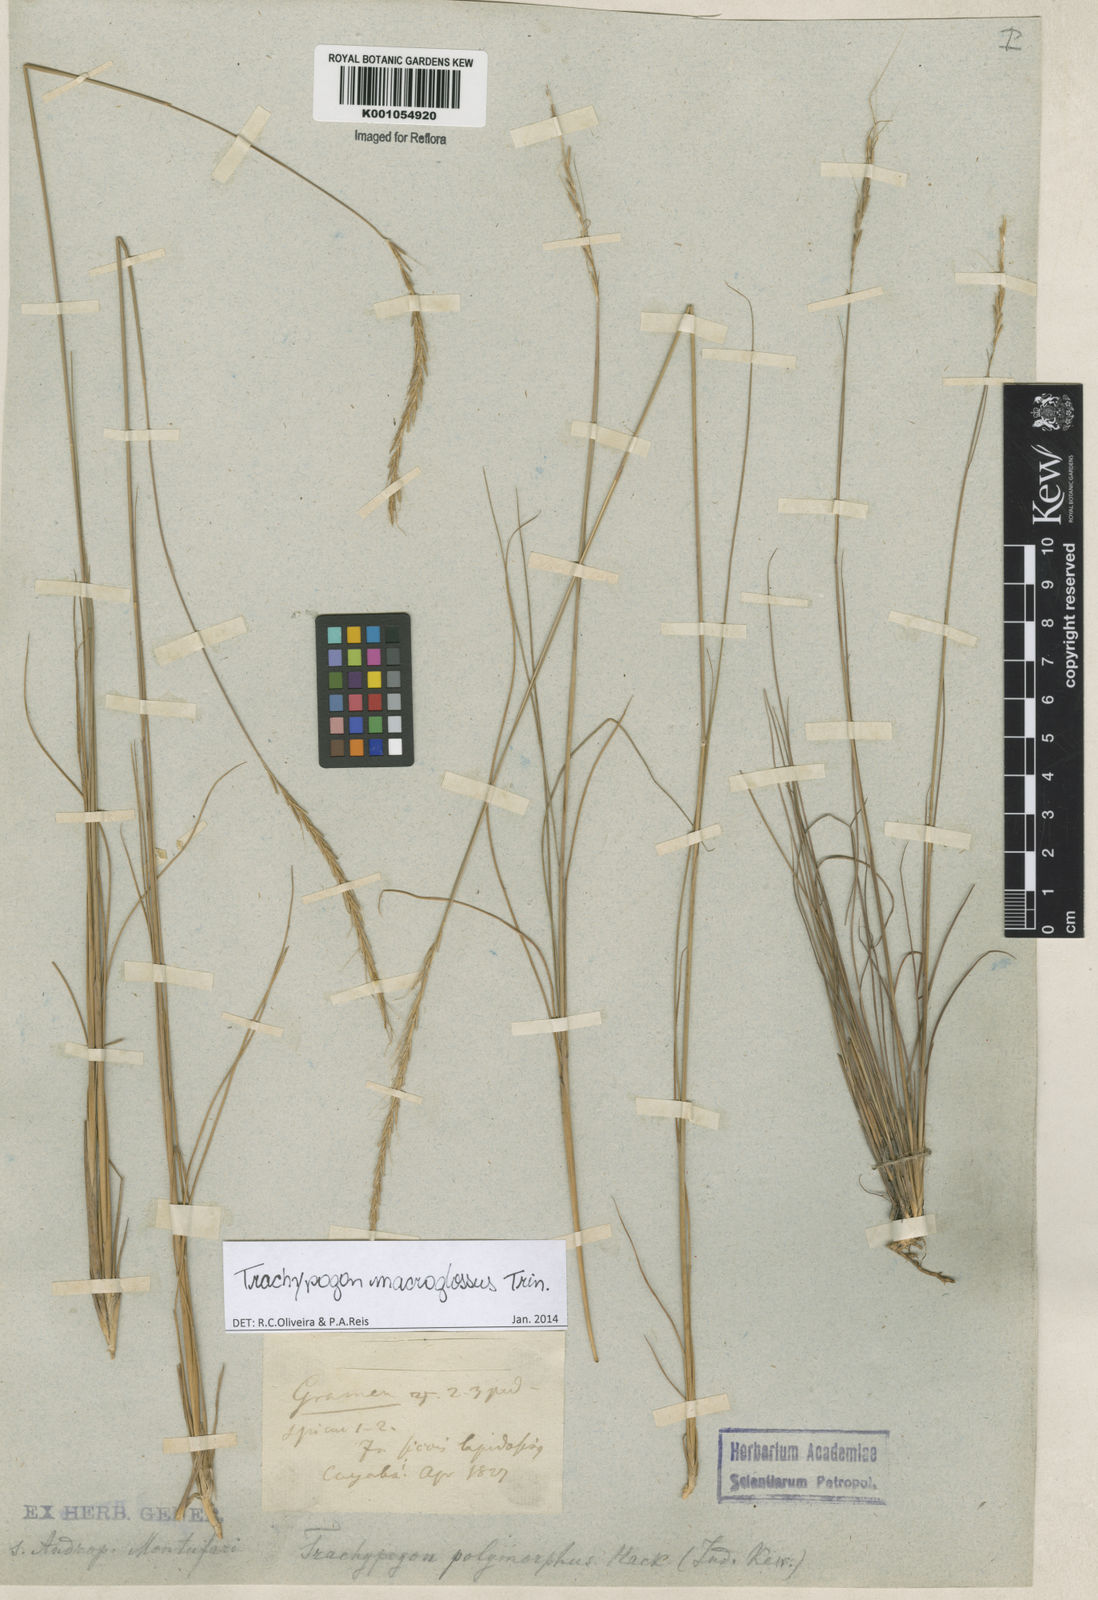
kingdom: Plantae
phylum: Tracheophyta
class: Liliopsida
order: Poales
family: Poaceae
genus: Trachypogon
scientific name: Trachypogon macroglossus
